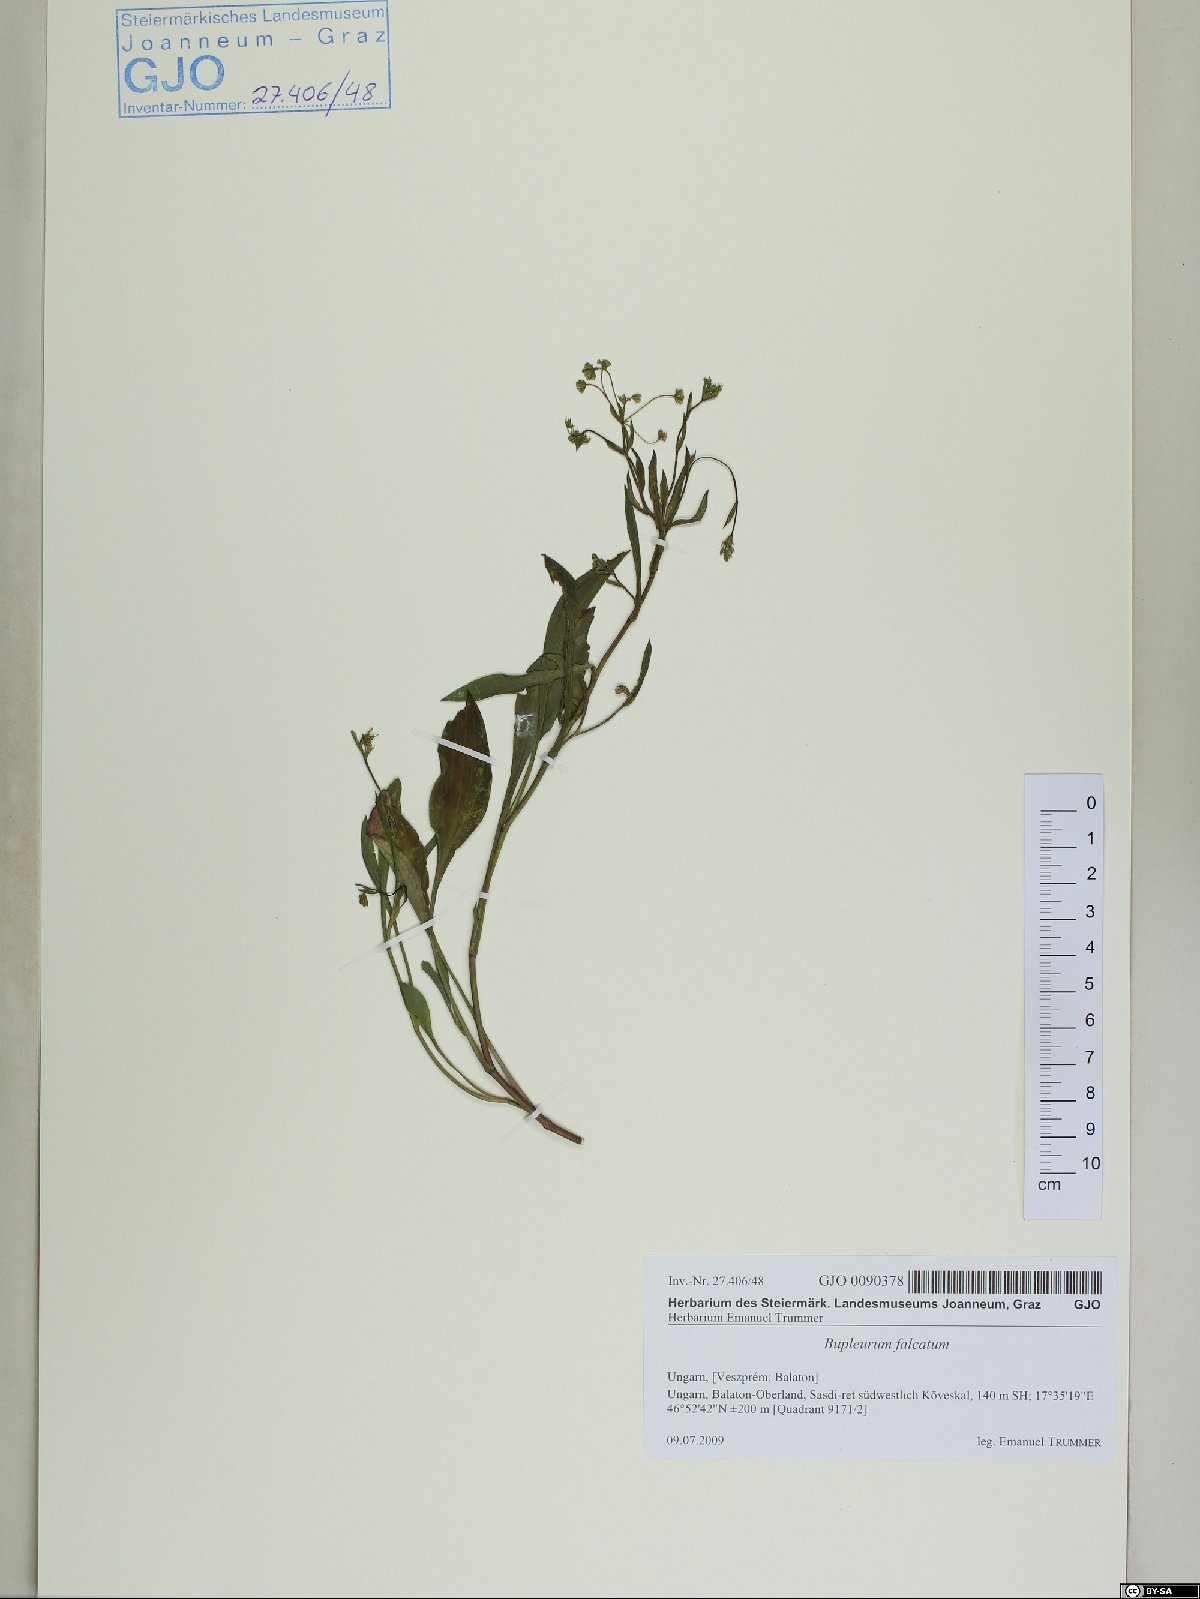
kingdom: Plantae
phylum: Tracheophyta
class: Magnoliopsida
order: Apiales
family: Apiaceae
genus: Bupleurum
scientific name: Bupleurum falcatum
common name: Sickle-leaved hare's-ear
